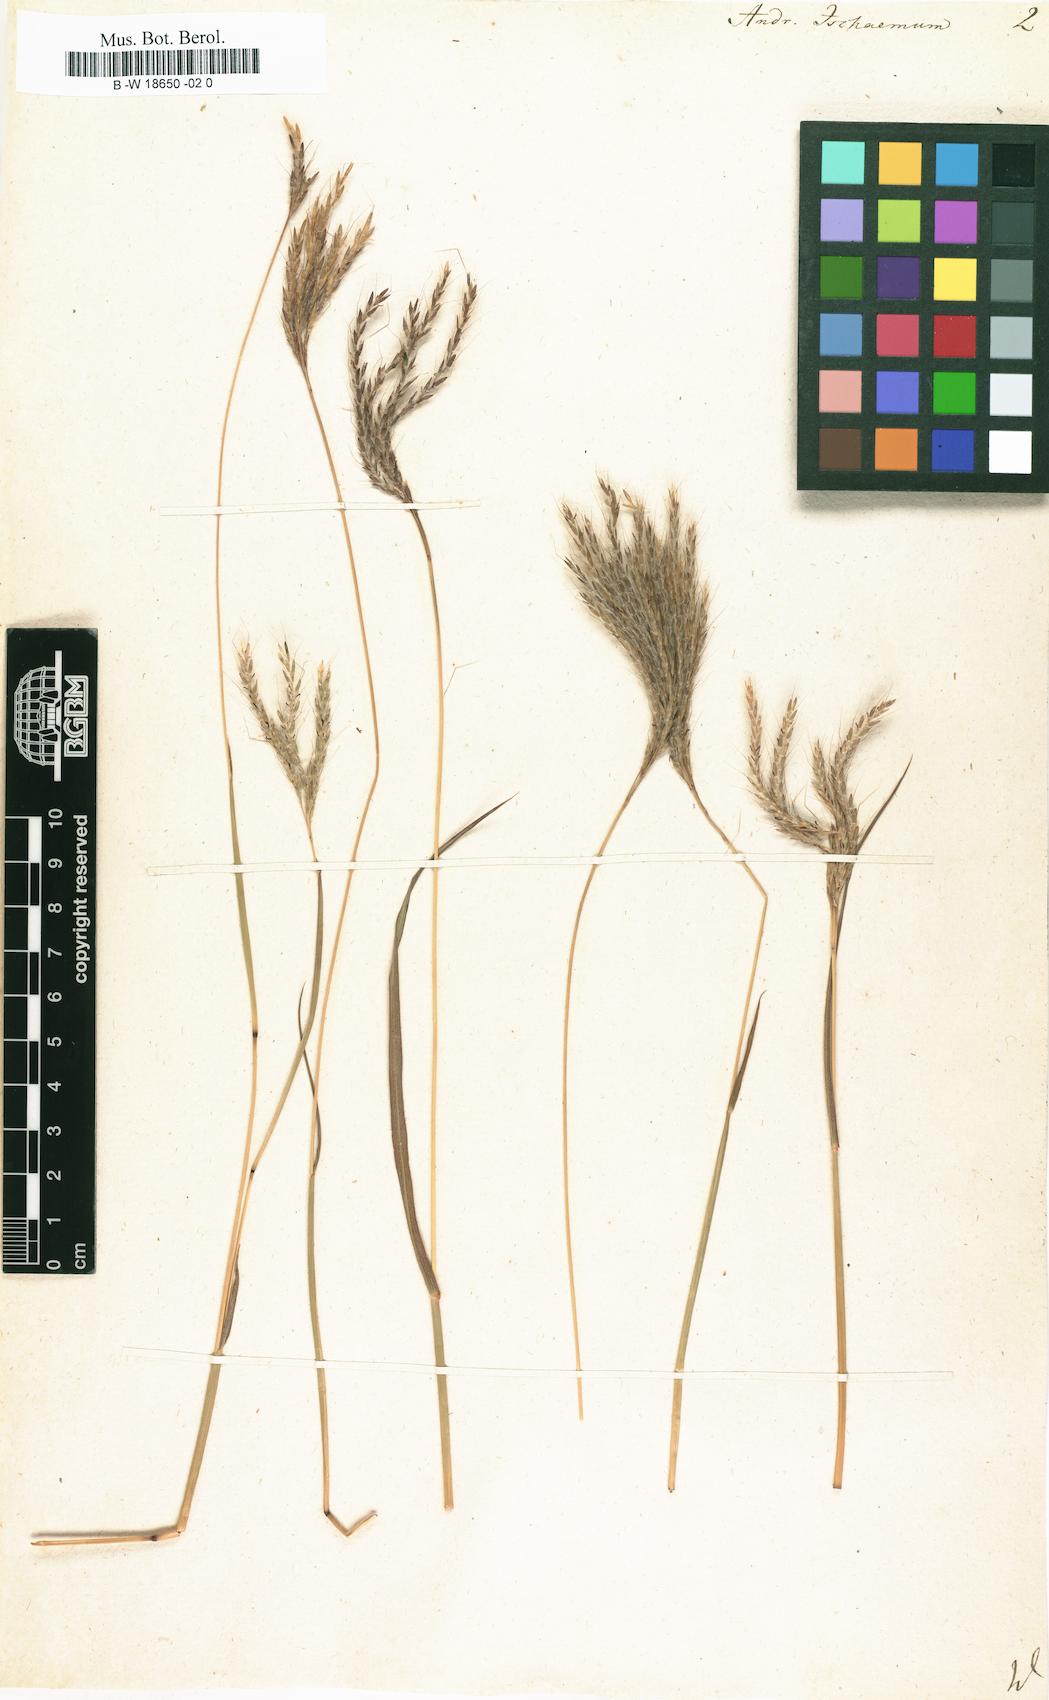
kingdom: Plantae
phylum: Tracheophyta
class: Liliopsida
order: Poales
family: Poaceae
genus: Andropogon
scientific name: Andropogon ischaemum
